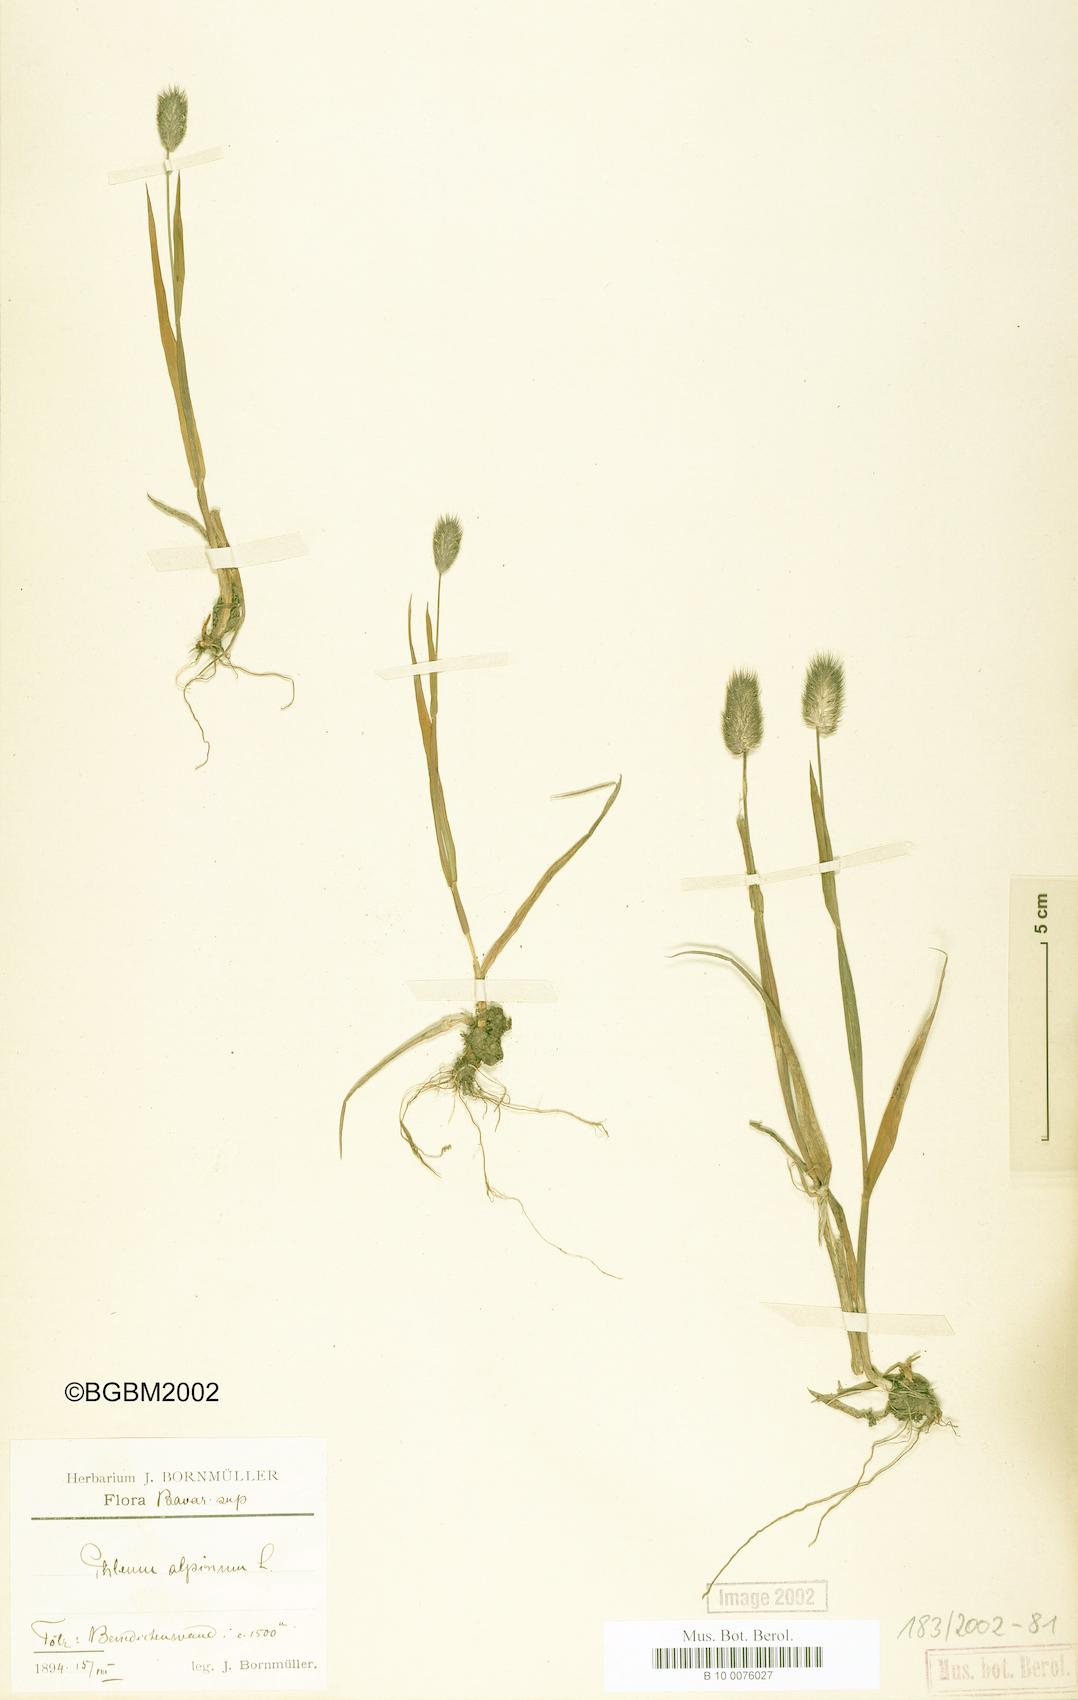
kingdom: Plantae
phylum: Tracheophyta
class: Liliopsida
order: Poales
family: Poaceae
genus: Phleum
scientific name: Phleum alpinum
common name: Alpine cat's-tail
